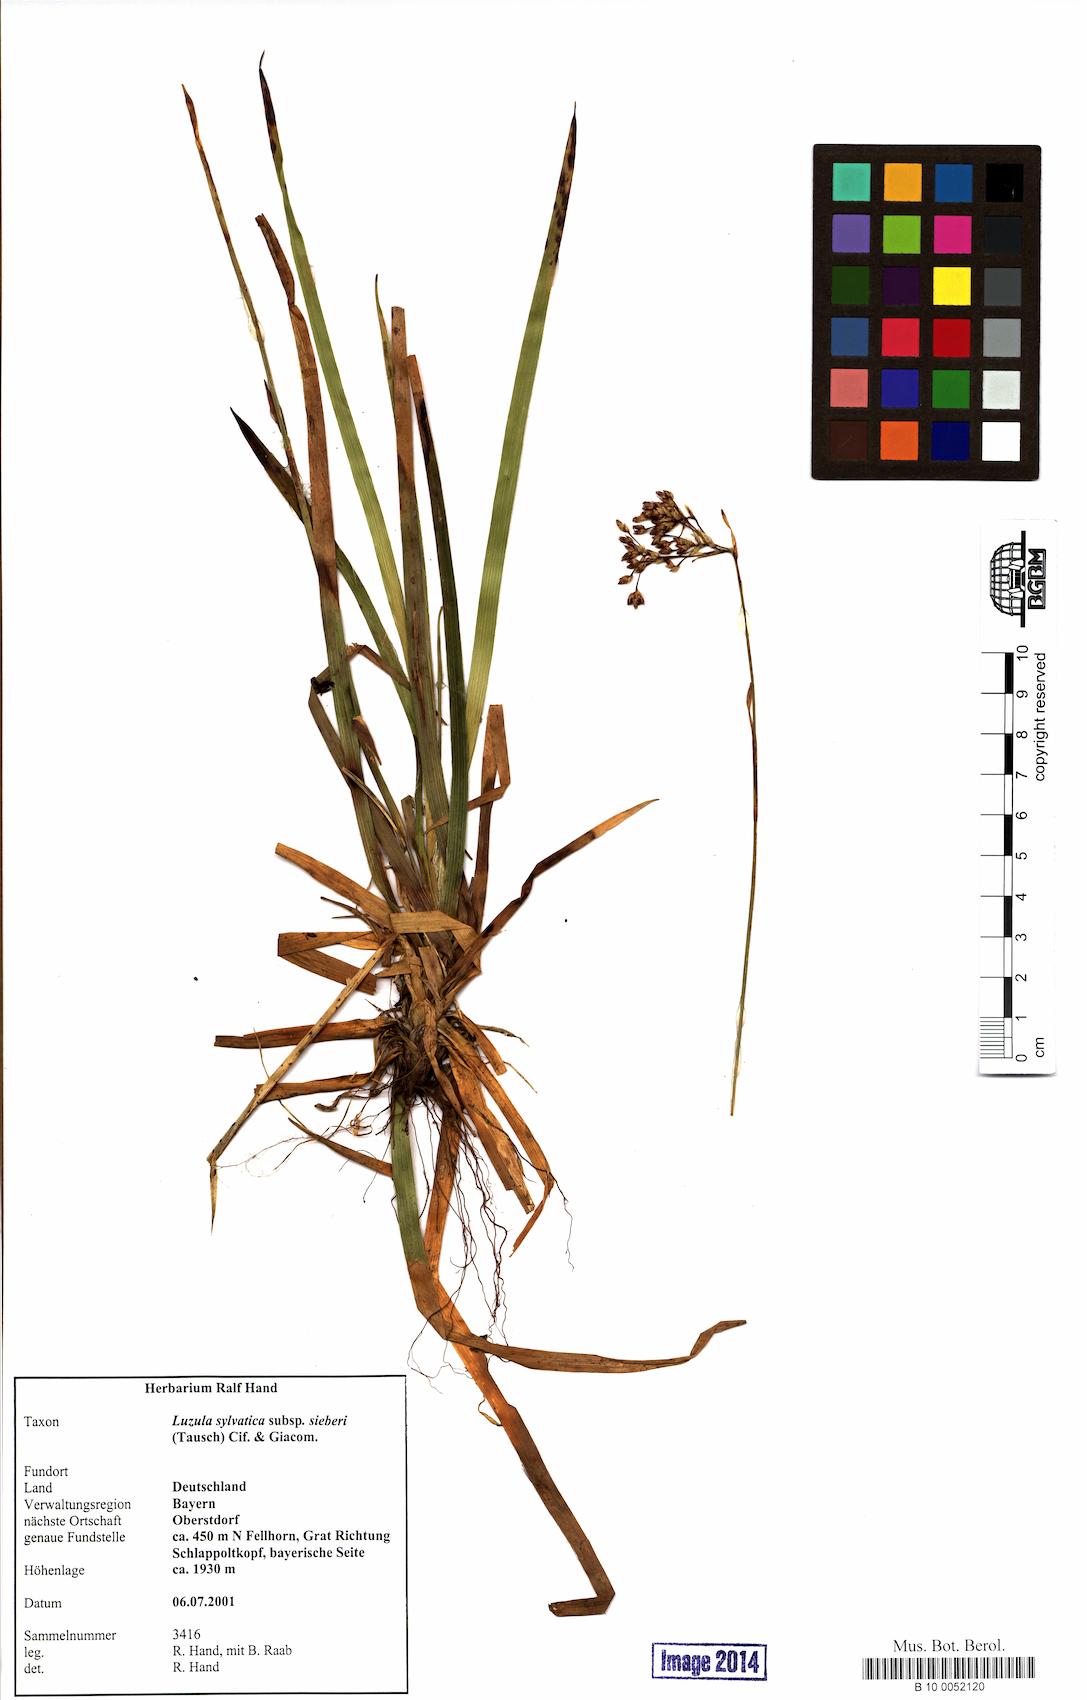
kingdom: Plantae
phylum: Tracheophyta
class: Liliopsida
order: Poales
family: Juncaceae
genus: Luzula
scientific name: Luzula sylvatica
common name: Great wood-rush
